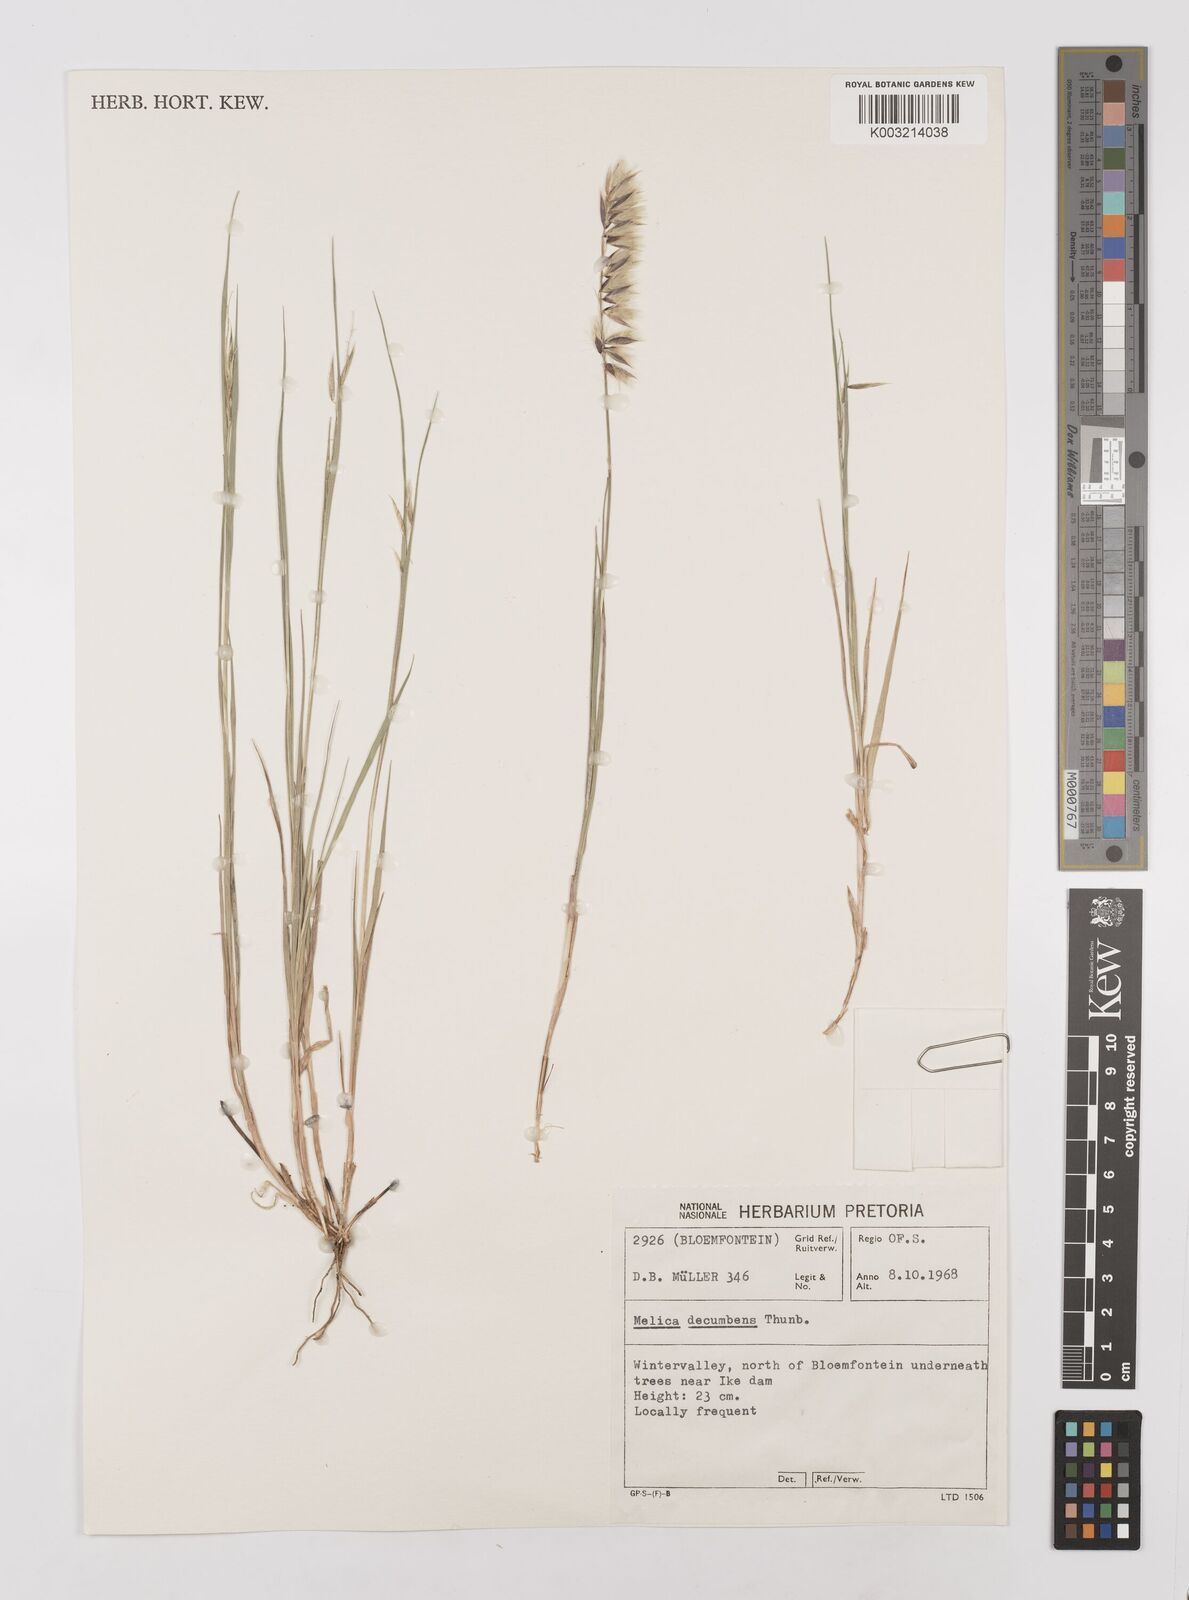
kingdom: Plantae
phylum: Tracheophyta
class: Liliopsida
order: Poales
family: Poaceae
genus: Melica
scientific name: Melica dendroides
